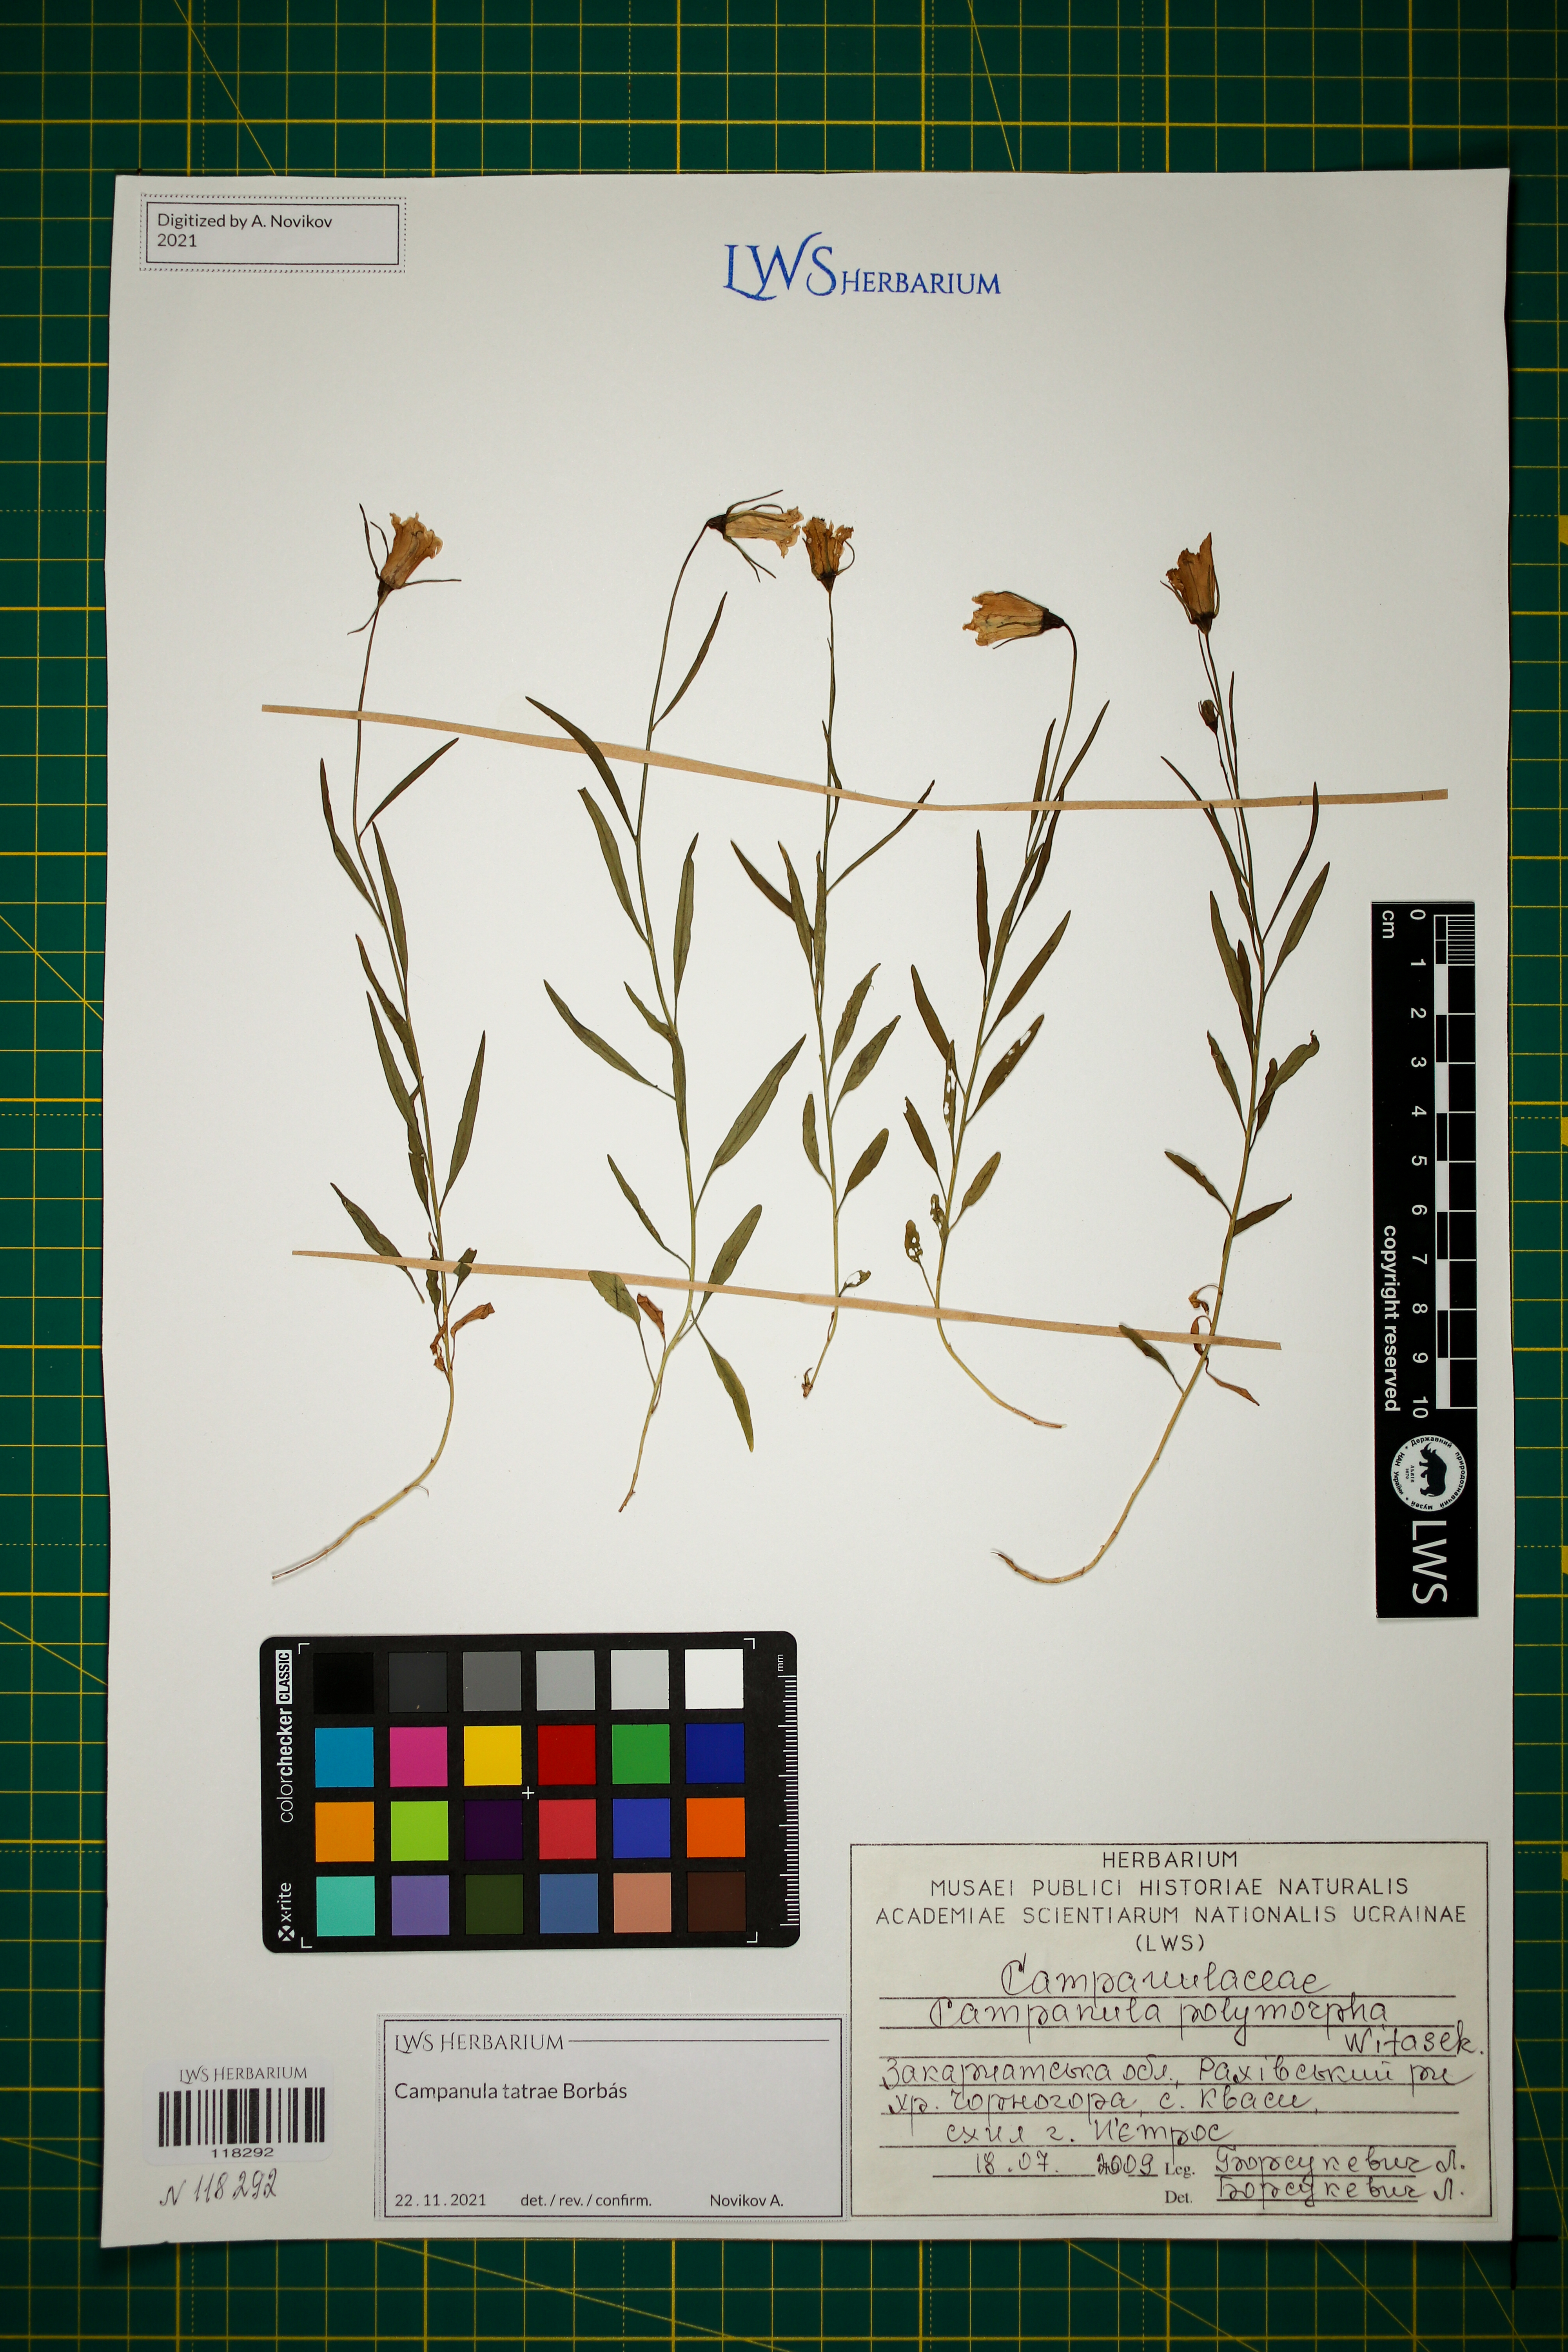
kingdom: Plantae
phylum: Tracheophyta
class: Magnoliopsida
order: Asterales
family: Campanulaceae
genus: Campanula
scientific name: Campanula tatrae
